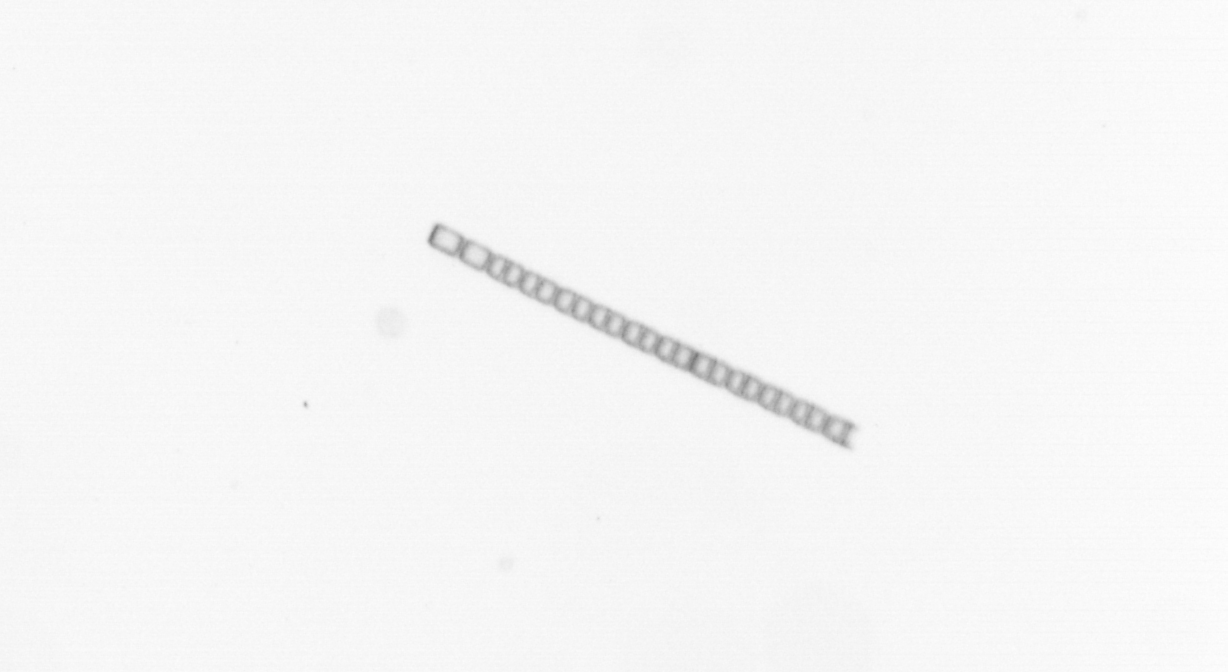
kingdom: Chromista
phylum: Ochrophyta
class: Bacillariophyceae
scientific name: Bacillariophyceae
